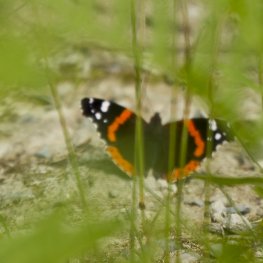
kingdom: Animalia
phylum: Arthropoda
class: Insecta
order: Lepidoptera
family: Nymphalidae
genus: Vanessa
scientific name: Vanessa atalanta
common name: Red Admiral
